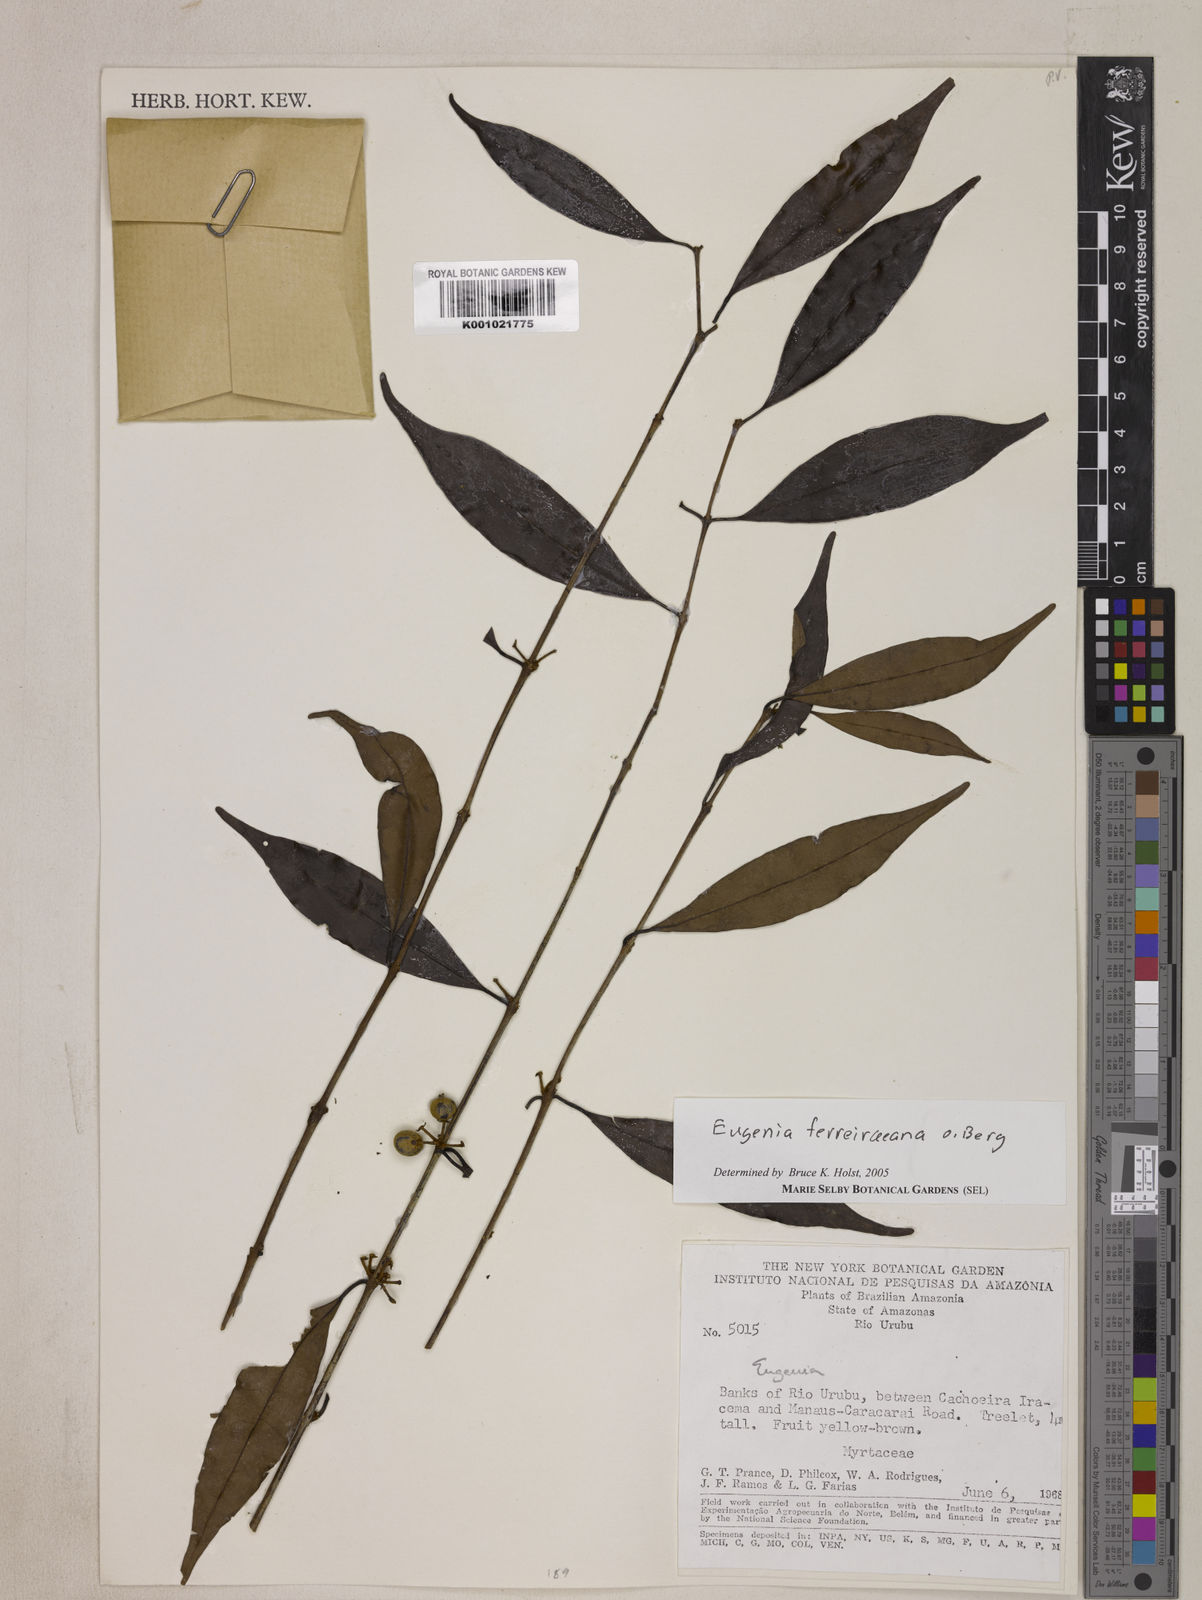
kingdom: Plantae
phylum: Tracheophyta
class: Magnoliopsida
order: Myrtales
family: Myrtaceae
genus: Eugenia
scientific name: Eugenia ferreiraeana
